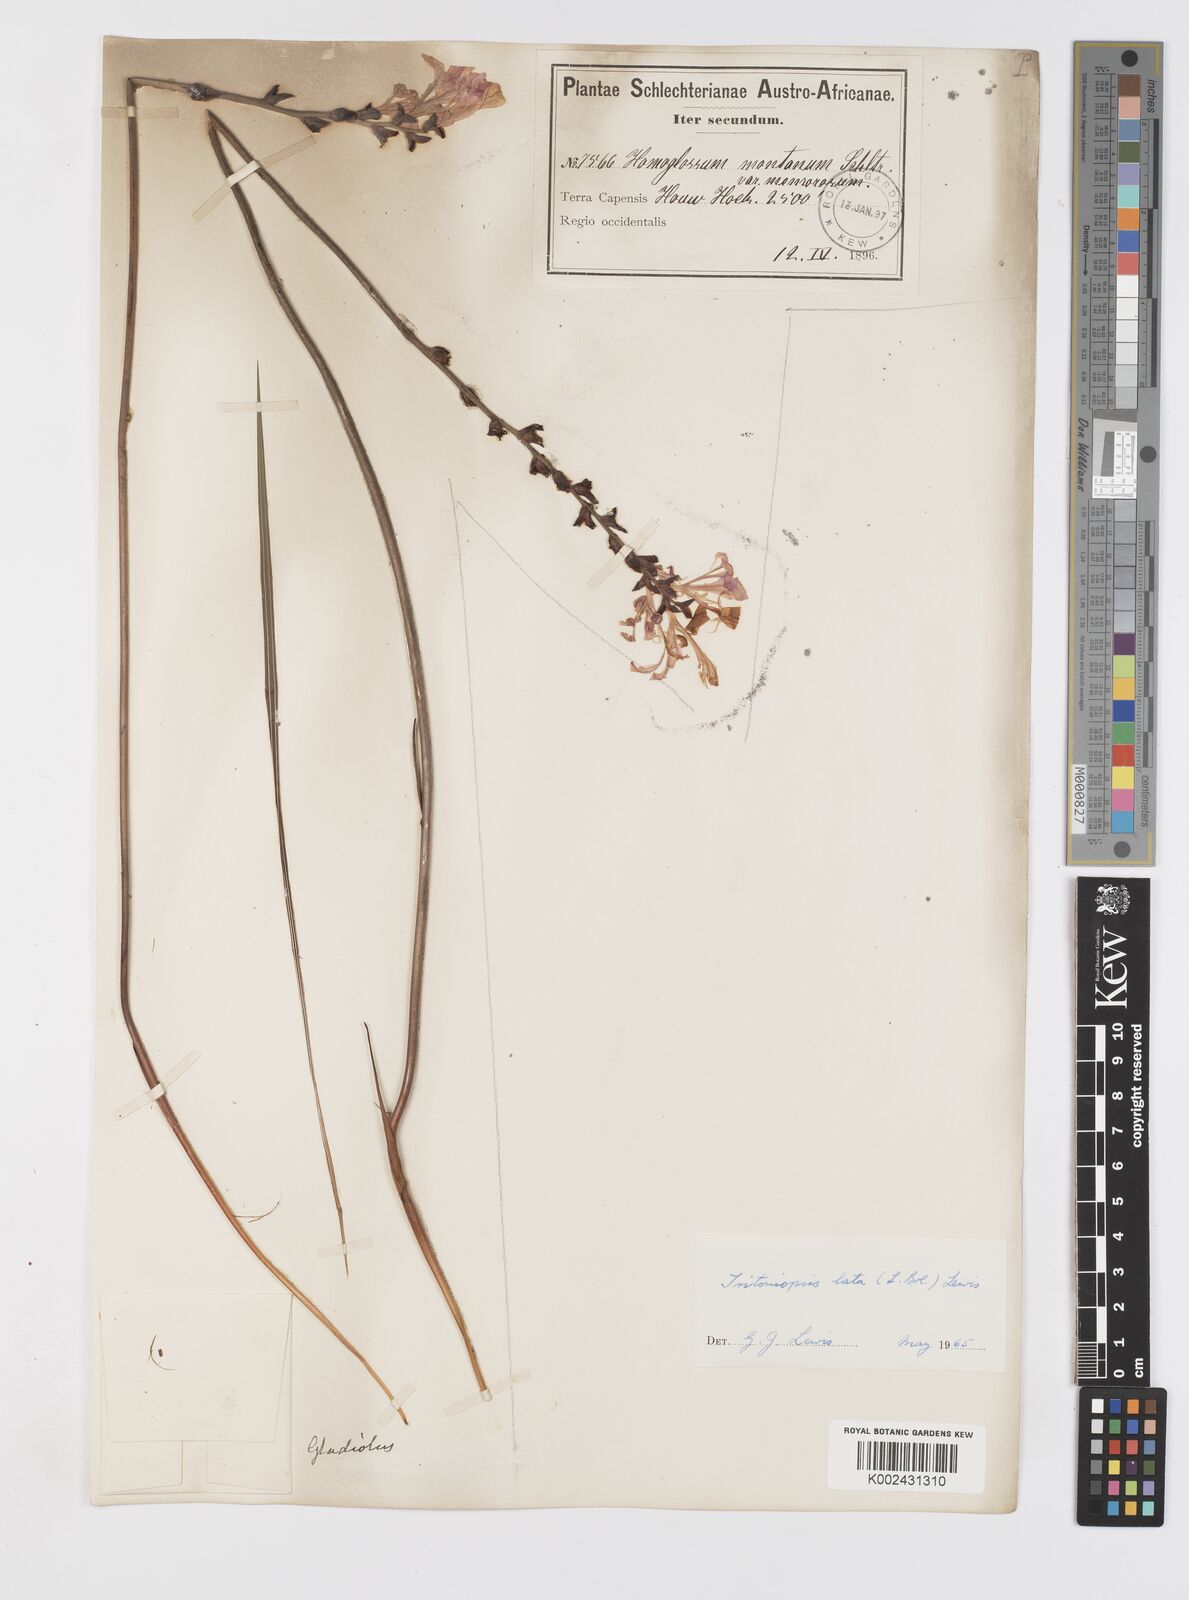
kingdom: Plantae
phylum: Tracheophyta
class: Liliopsida
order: Asparagales
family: Iridaceae
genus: Tritoniopsis
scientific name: Tritoniopsis lata
